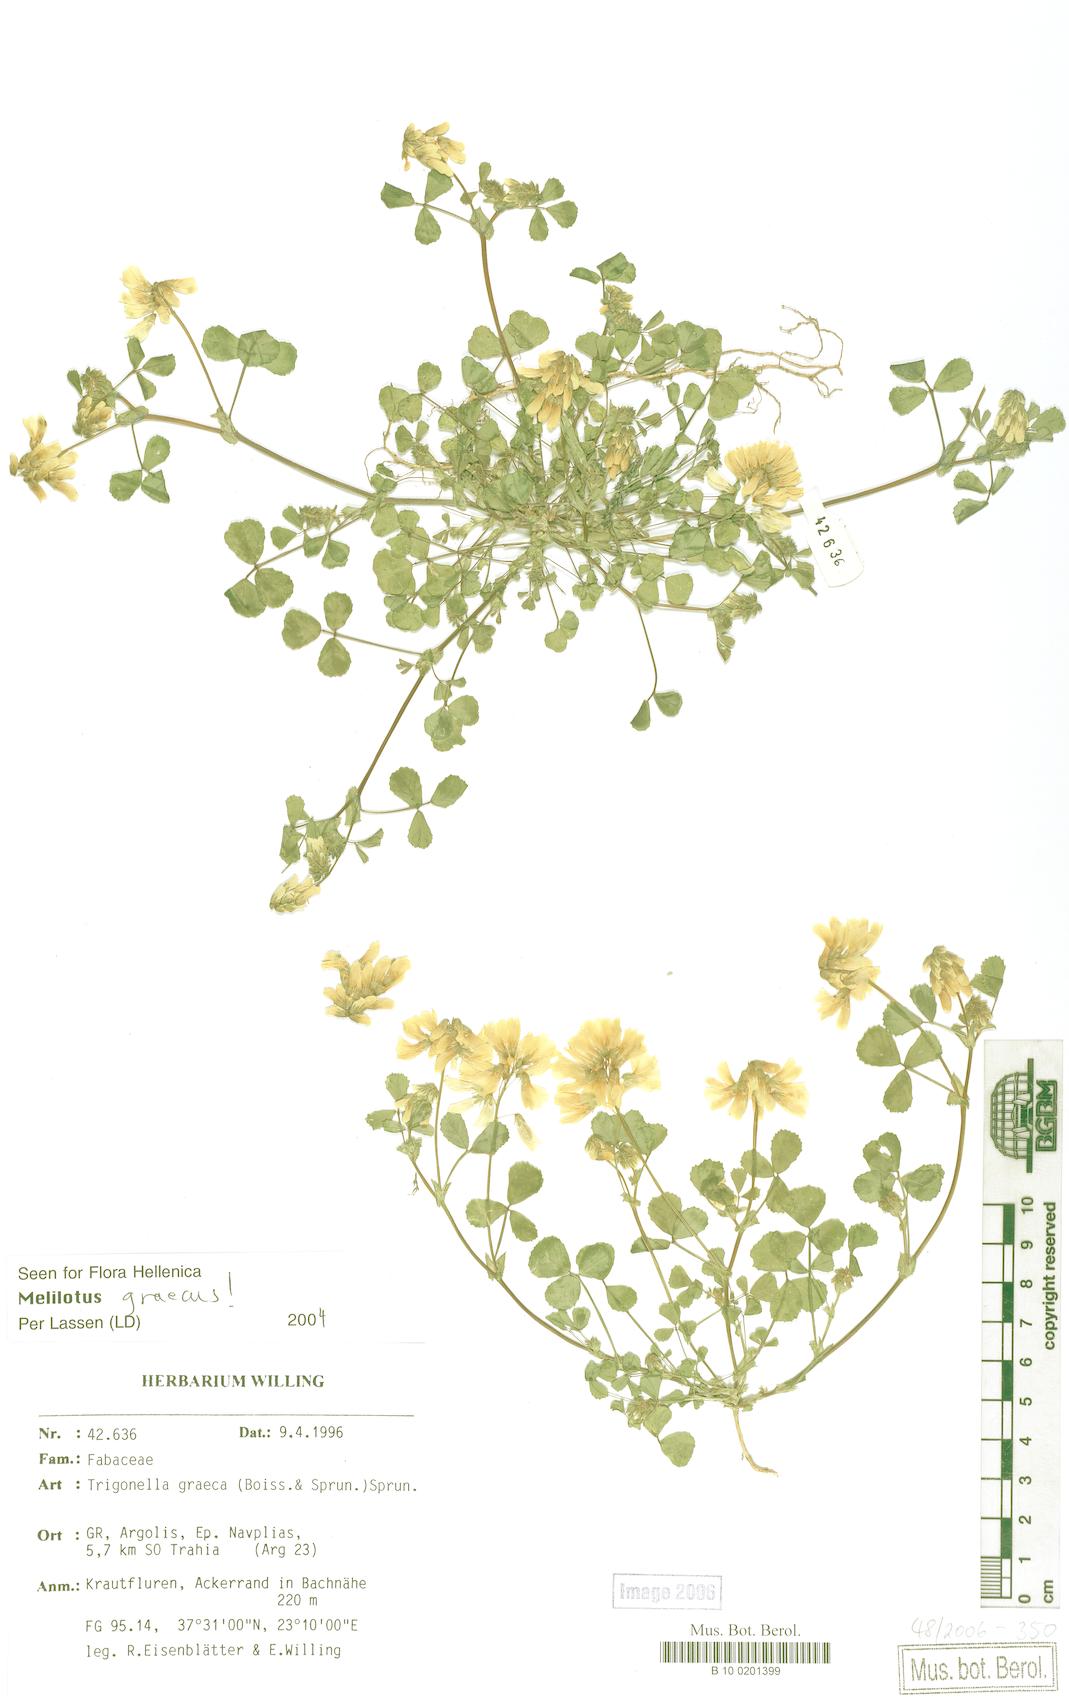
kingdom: Plantae
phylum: Tracheophyta
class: Magnoliopsida
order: Fabales
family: Fabaceae
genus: Trigonella
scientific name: Trigonella graeca
